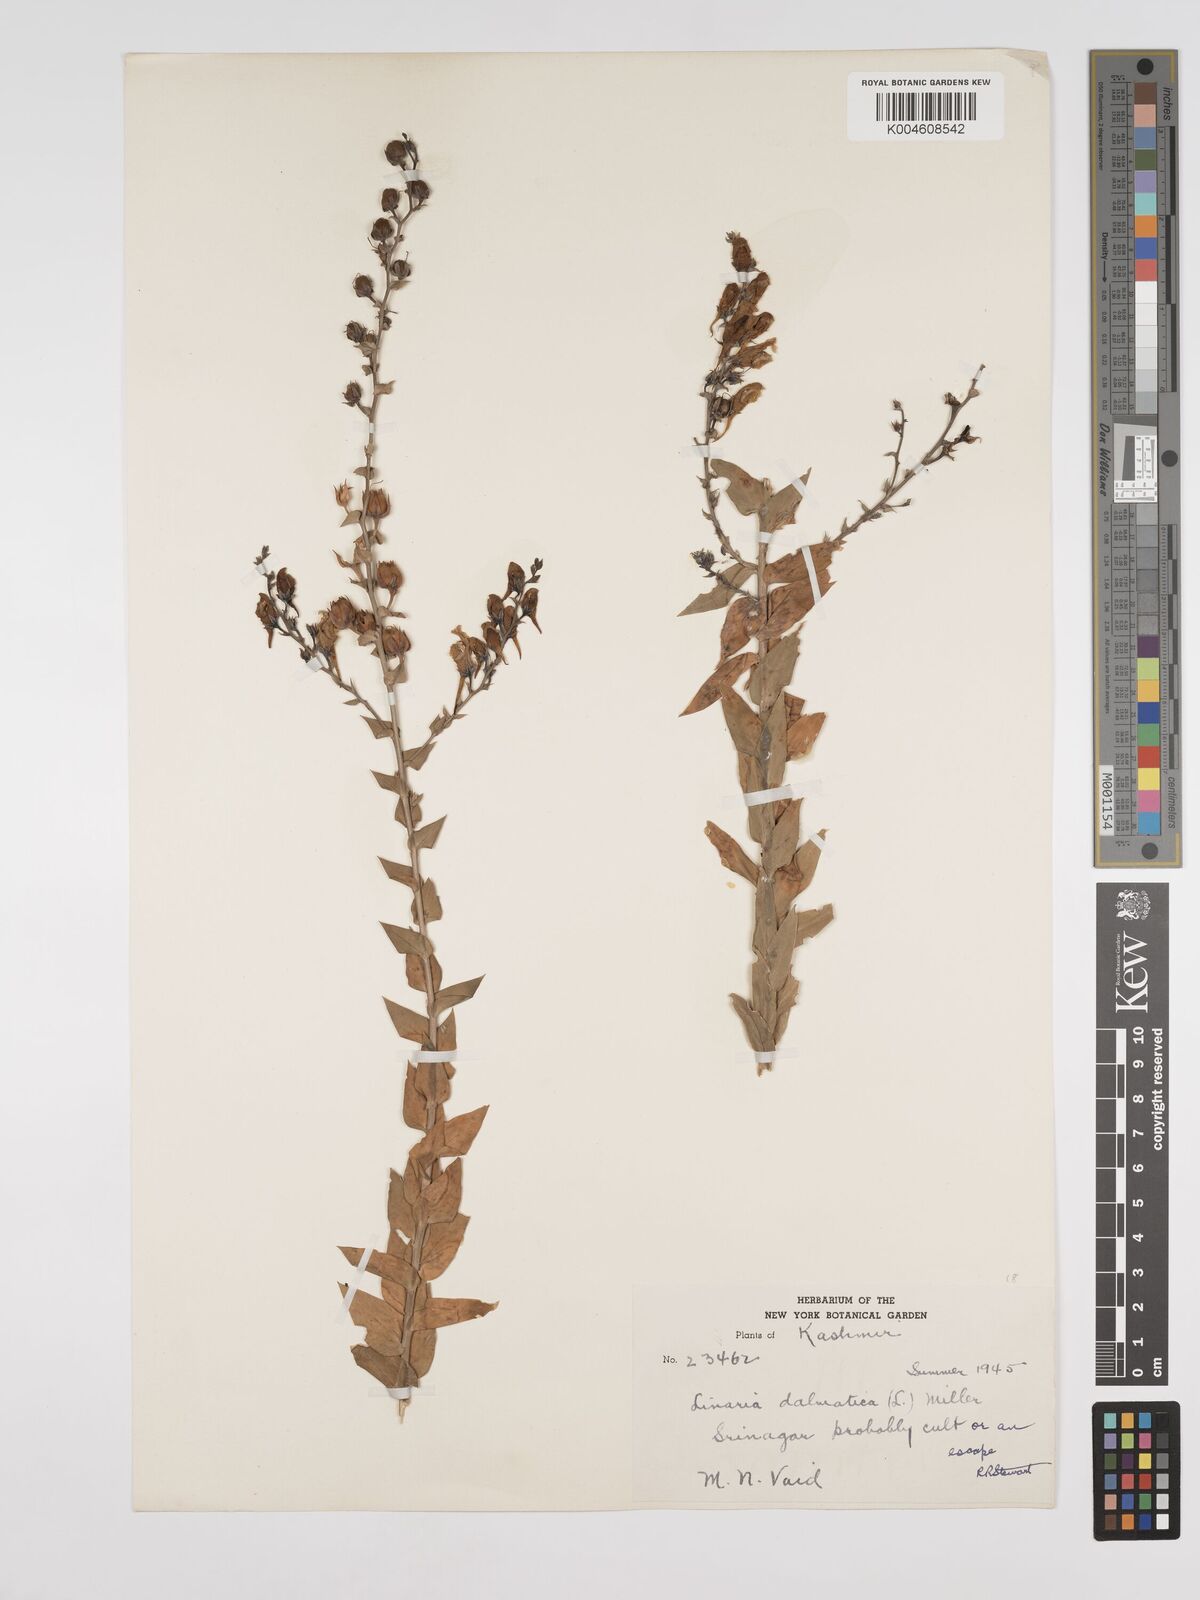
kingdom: Plantae
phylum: Tracheophyta
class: Magnoliopsida
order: Lamiales
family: Plantaginaceae
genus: Kickxia
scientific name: Kickxia
